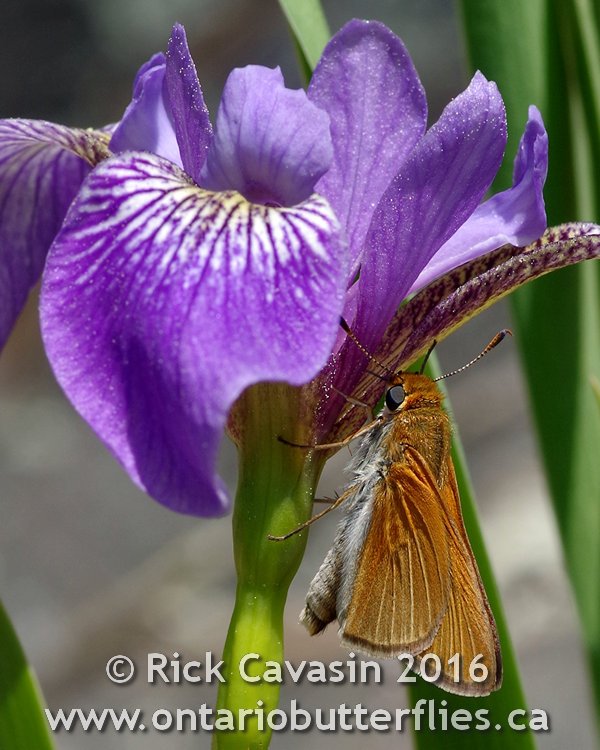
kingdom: Animalia
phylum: Arthropoda
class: Insecta
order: Lepidoptera
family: Hesperiidae
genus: Euphyes
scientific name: Euphyes bimacula
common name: Two-spotted Skipper
